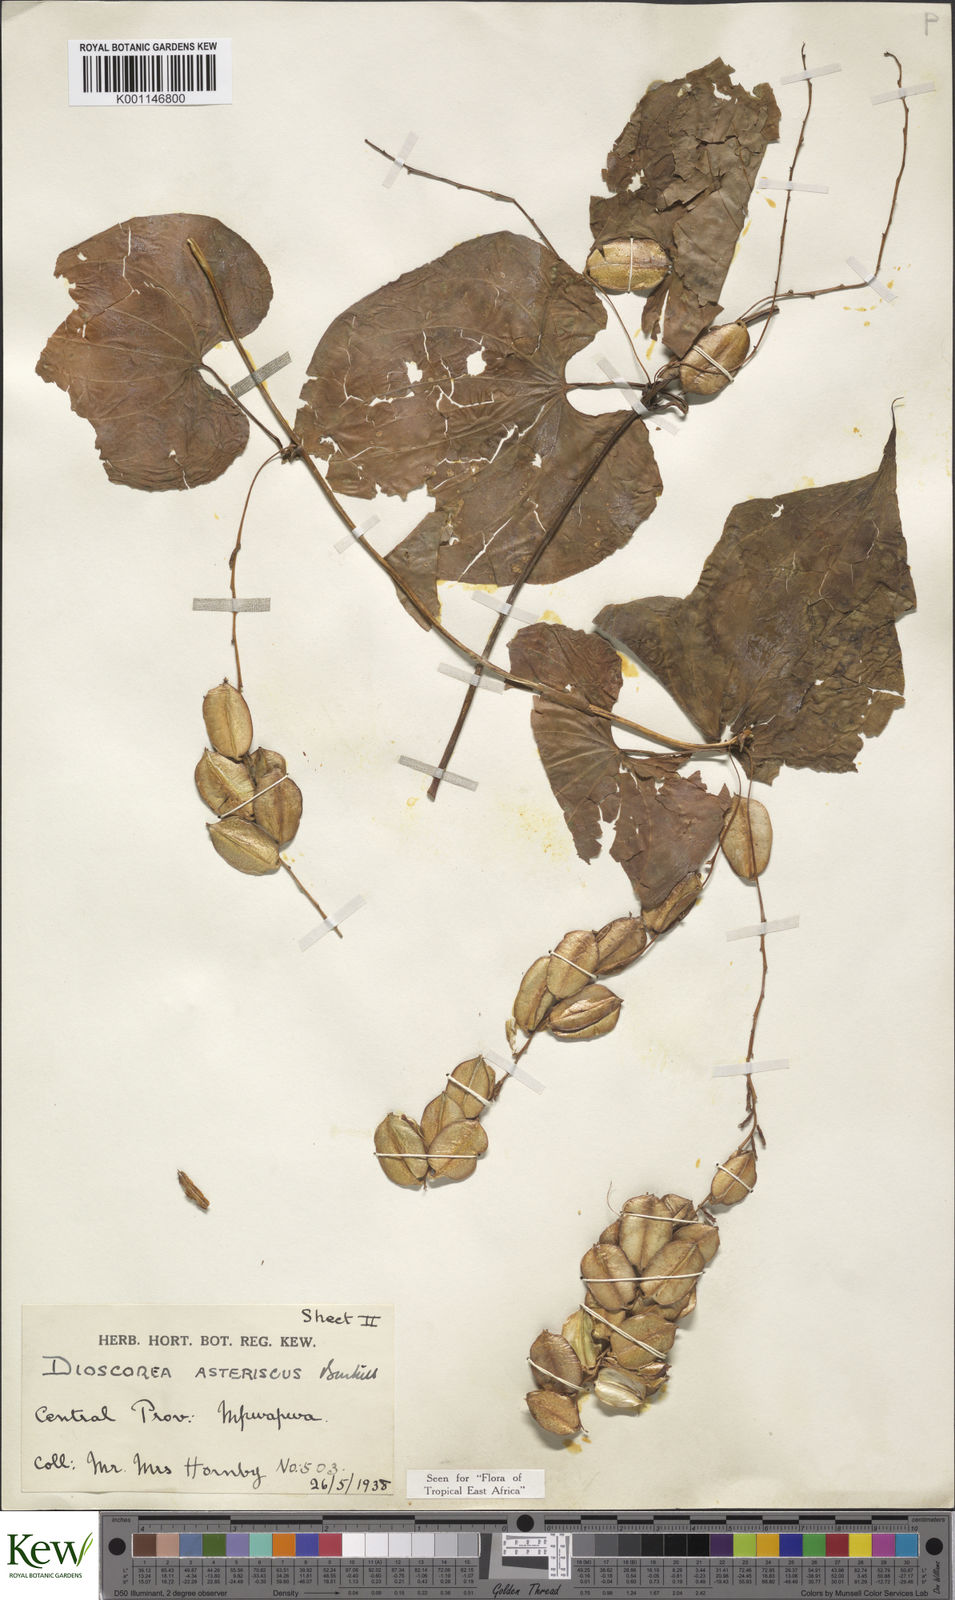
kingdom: Plantae
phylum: Tracheophyta
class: Liliopsida
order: Dioscoreales
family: Dioscoreaceae
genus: Dioscorea
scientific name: Dioscorea asteriscus
